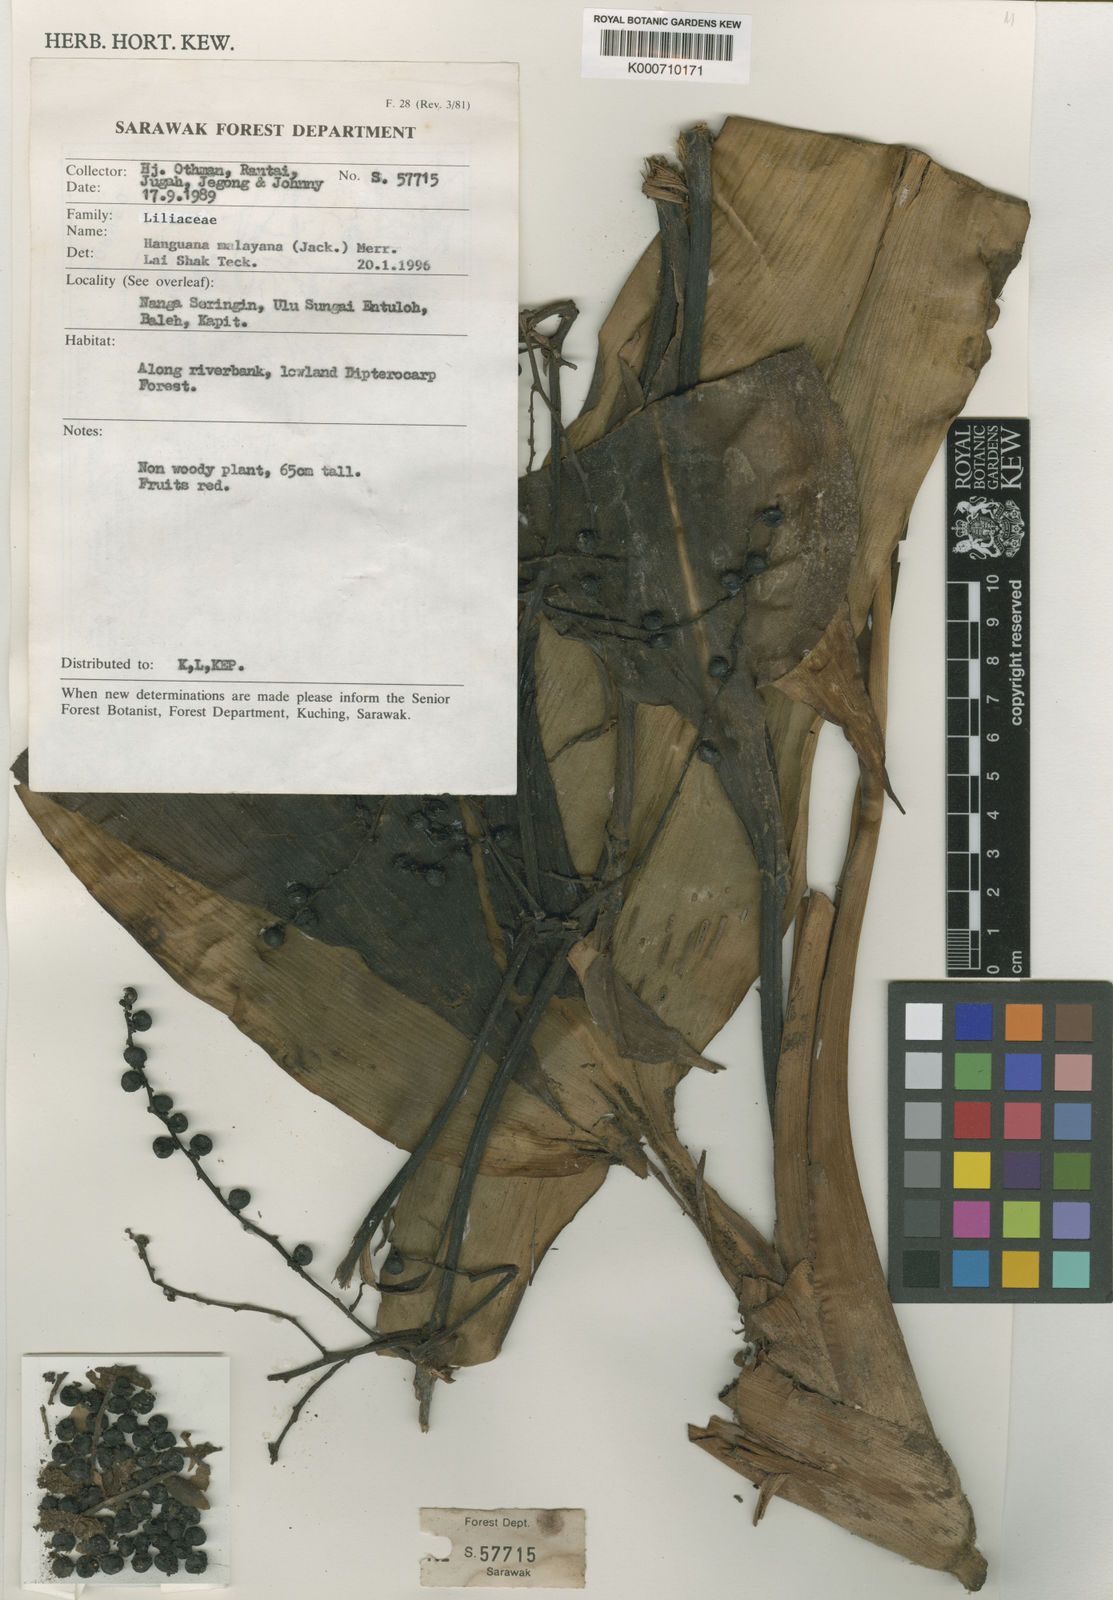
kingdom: Plantae
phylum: Tracheophyta
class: Liliopsida
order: Commelinales
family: Hanguanaceae
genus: Hanguana
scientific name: Hanguana malayana
